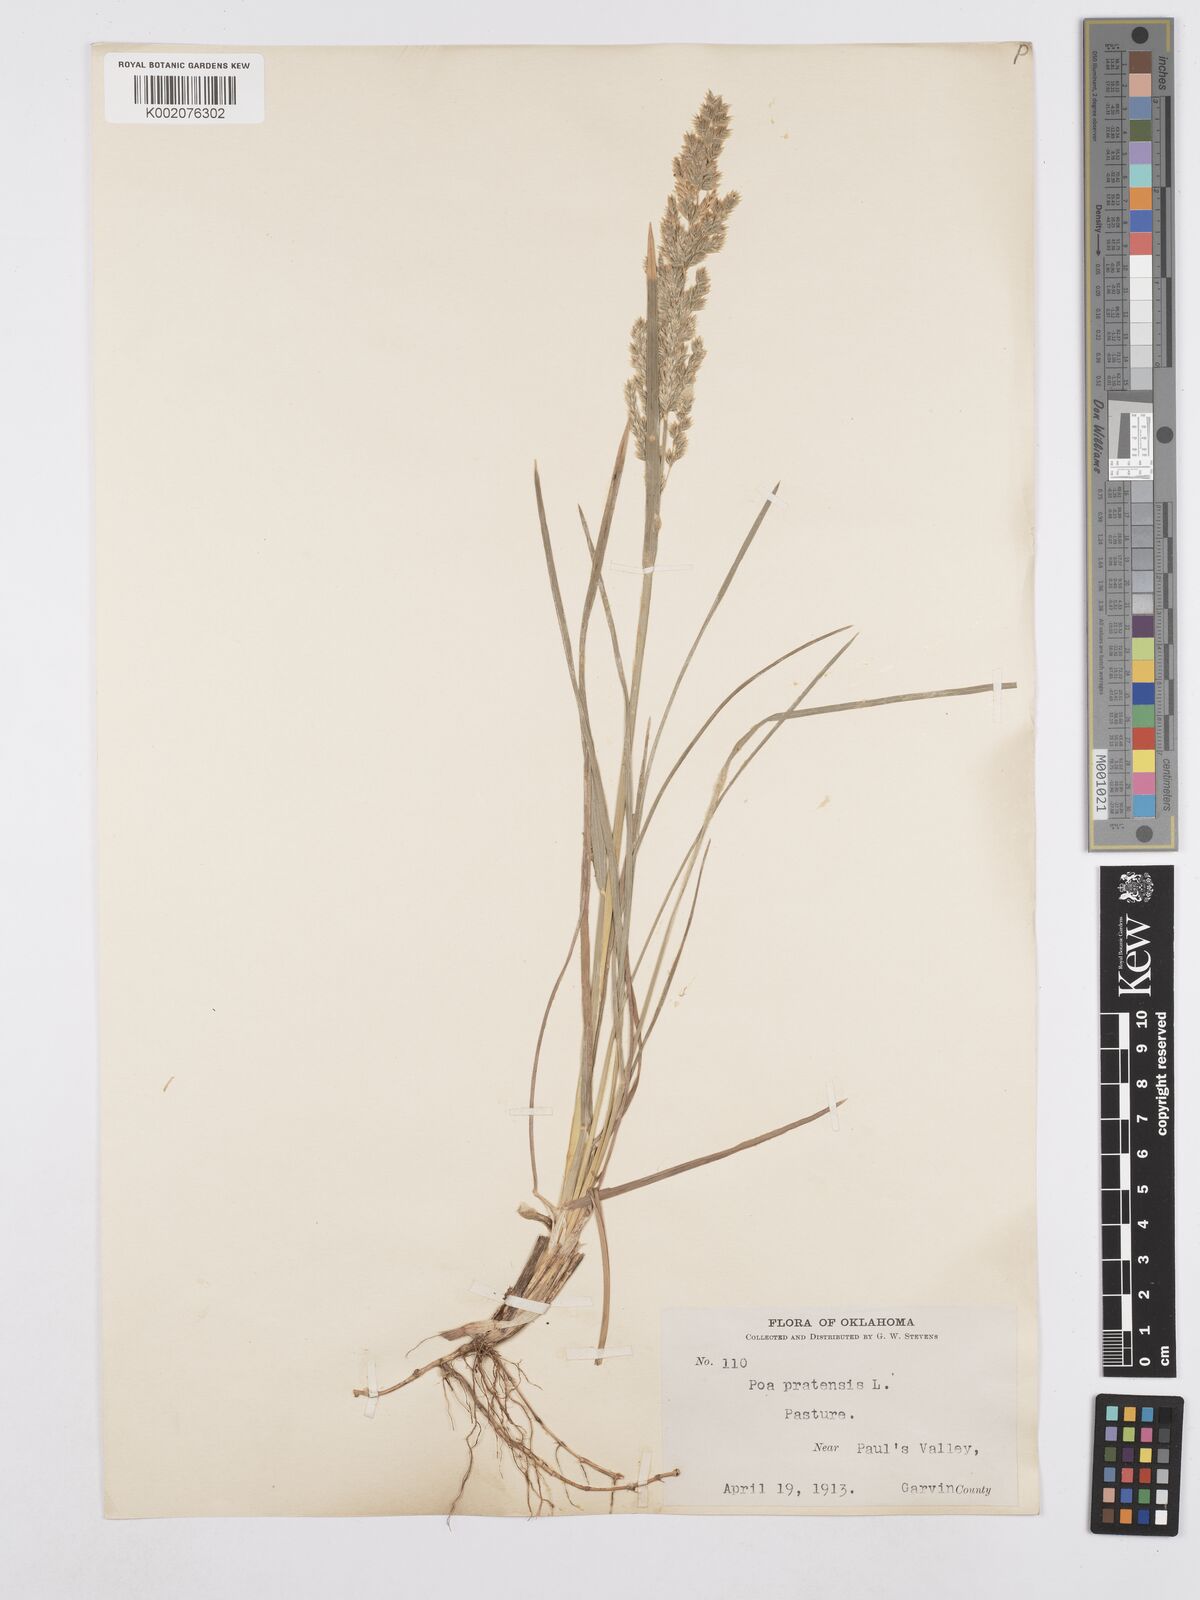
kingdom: Plantae
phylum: Tracheophyta
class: Liliopsida
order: Poales
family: Poaceae
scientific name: Poaceae
